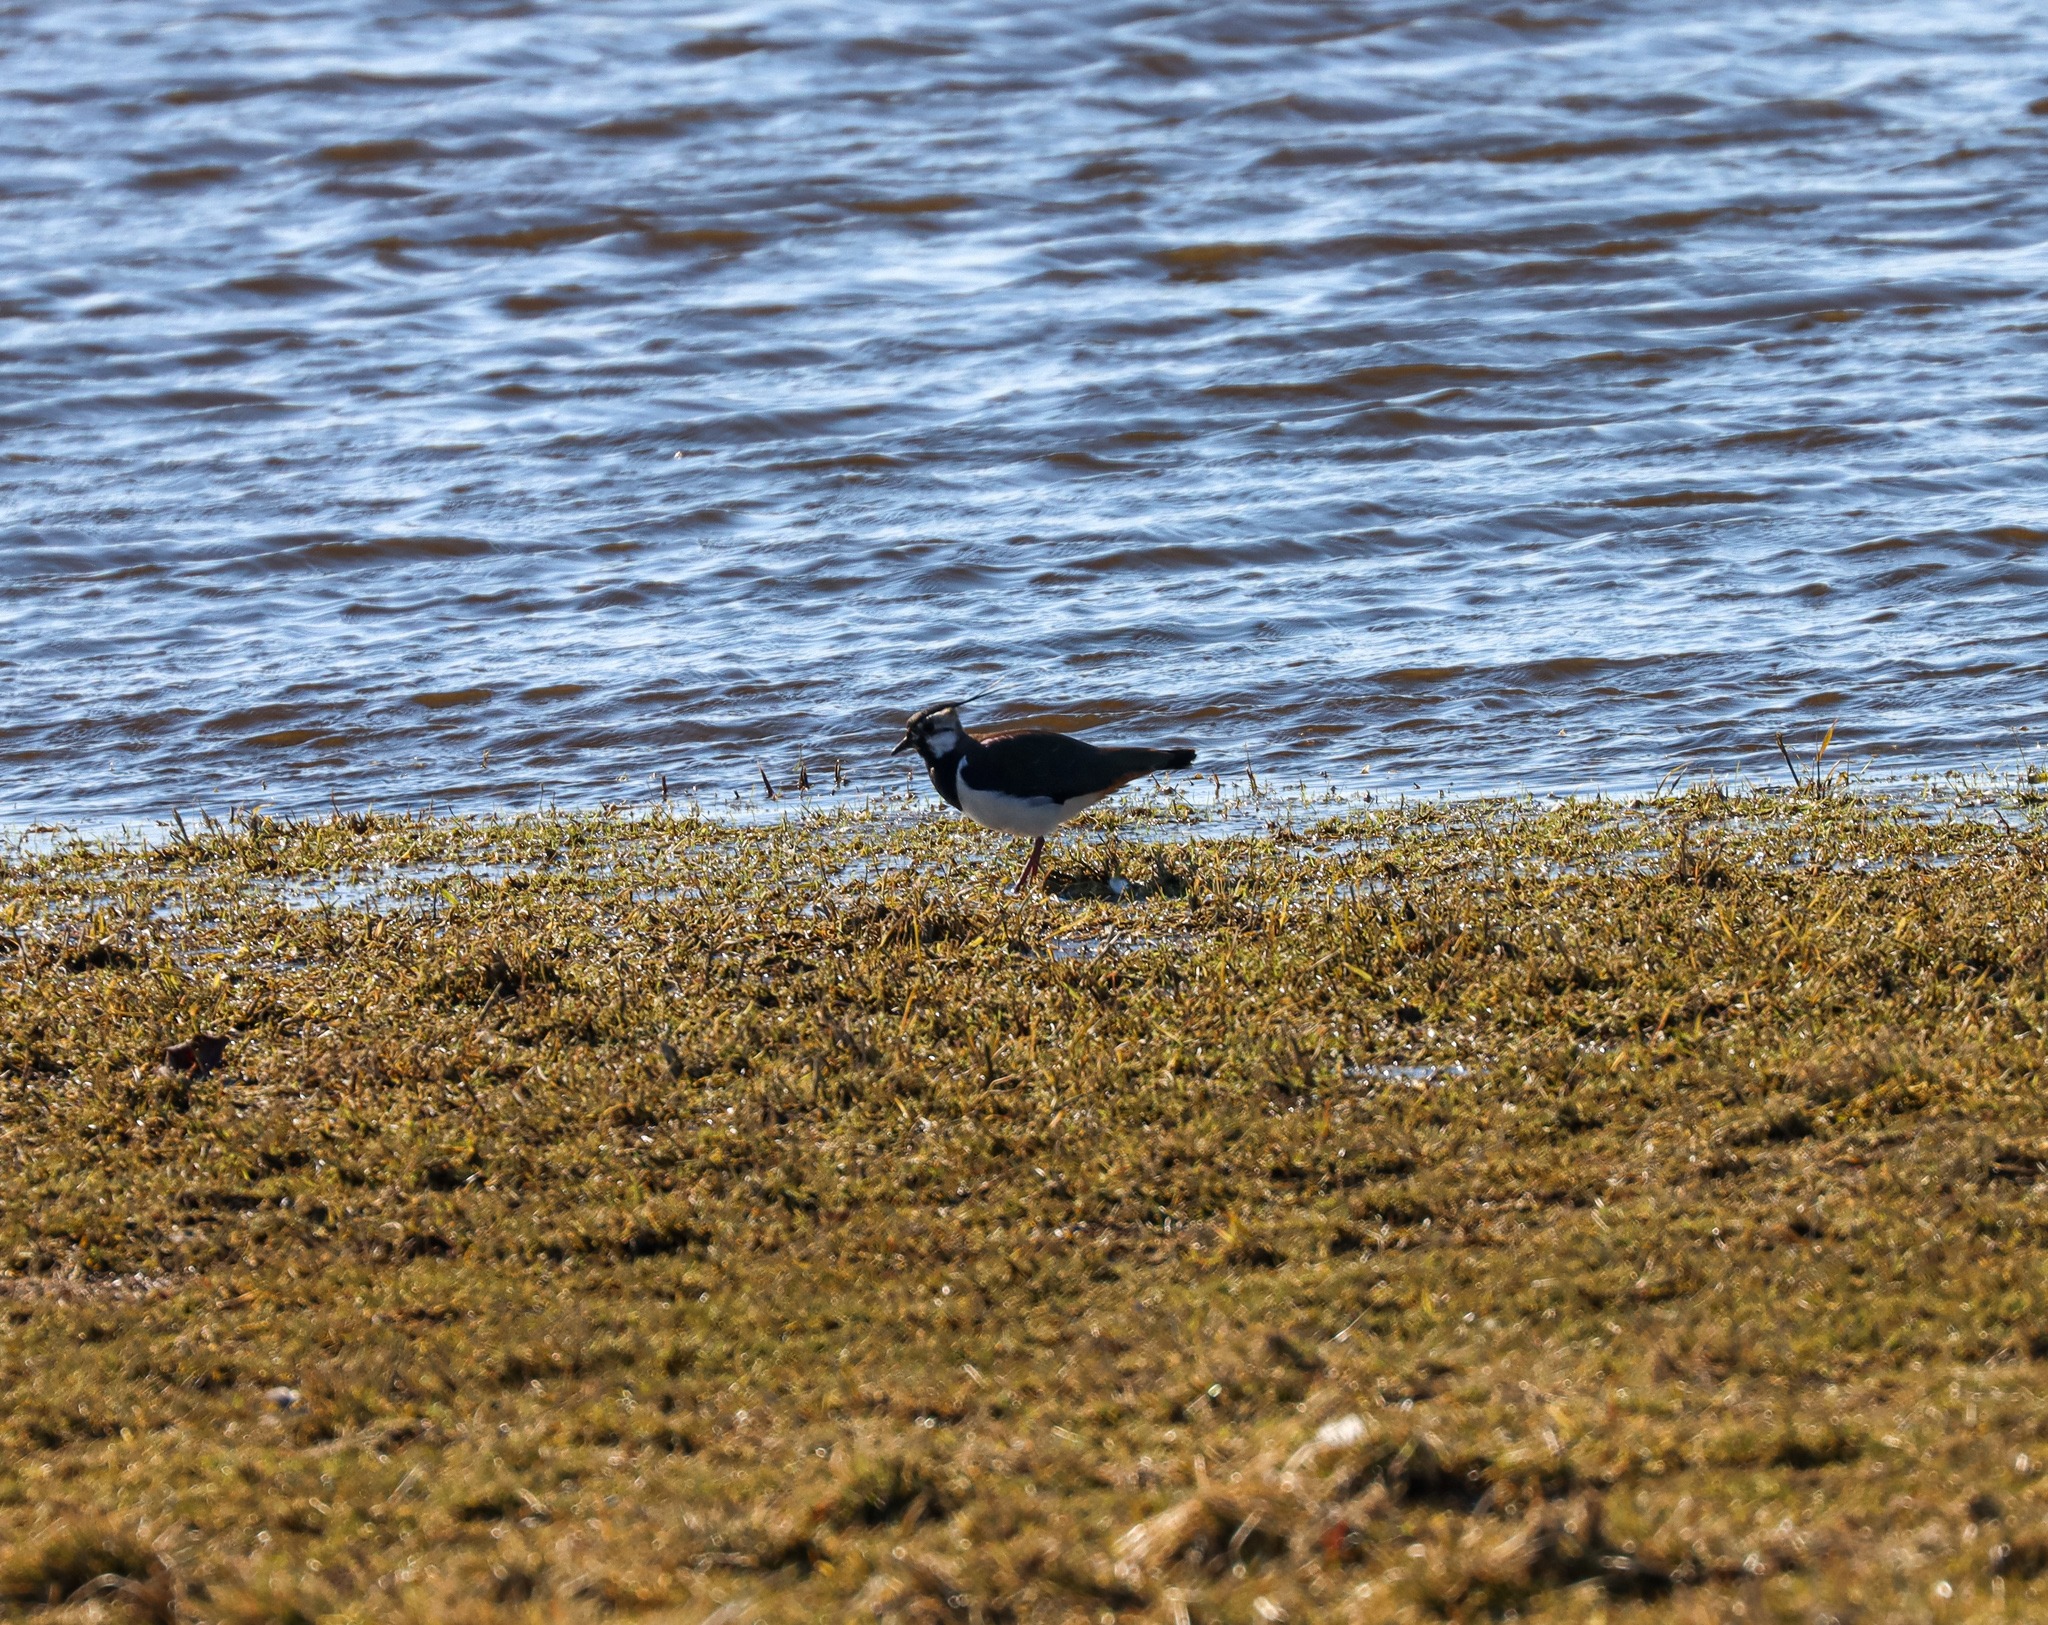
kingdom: Animalia
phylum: Chordata
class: Aves
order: Charadriiformes
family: Charadriidae
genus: Vanellus
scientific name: Vanellus vanellus
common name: Vibe
